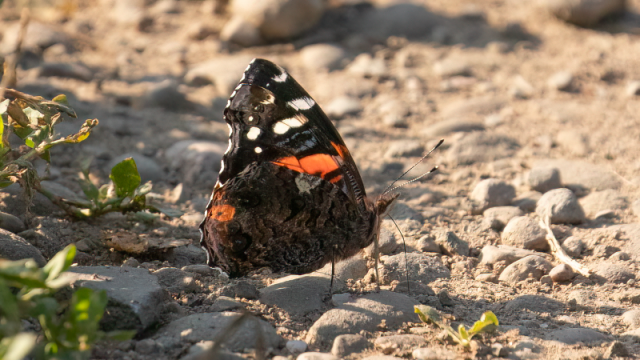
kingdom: Animalia
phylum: Arthropoda
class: Insecta
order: Lepidoptera
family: Nymphalidae
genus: Vanessa
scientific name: Vanessa atalanta
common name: Red Admiral
